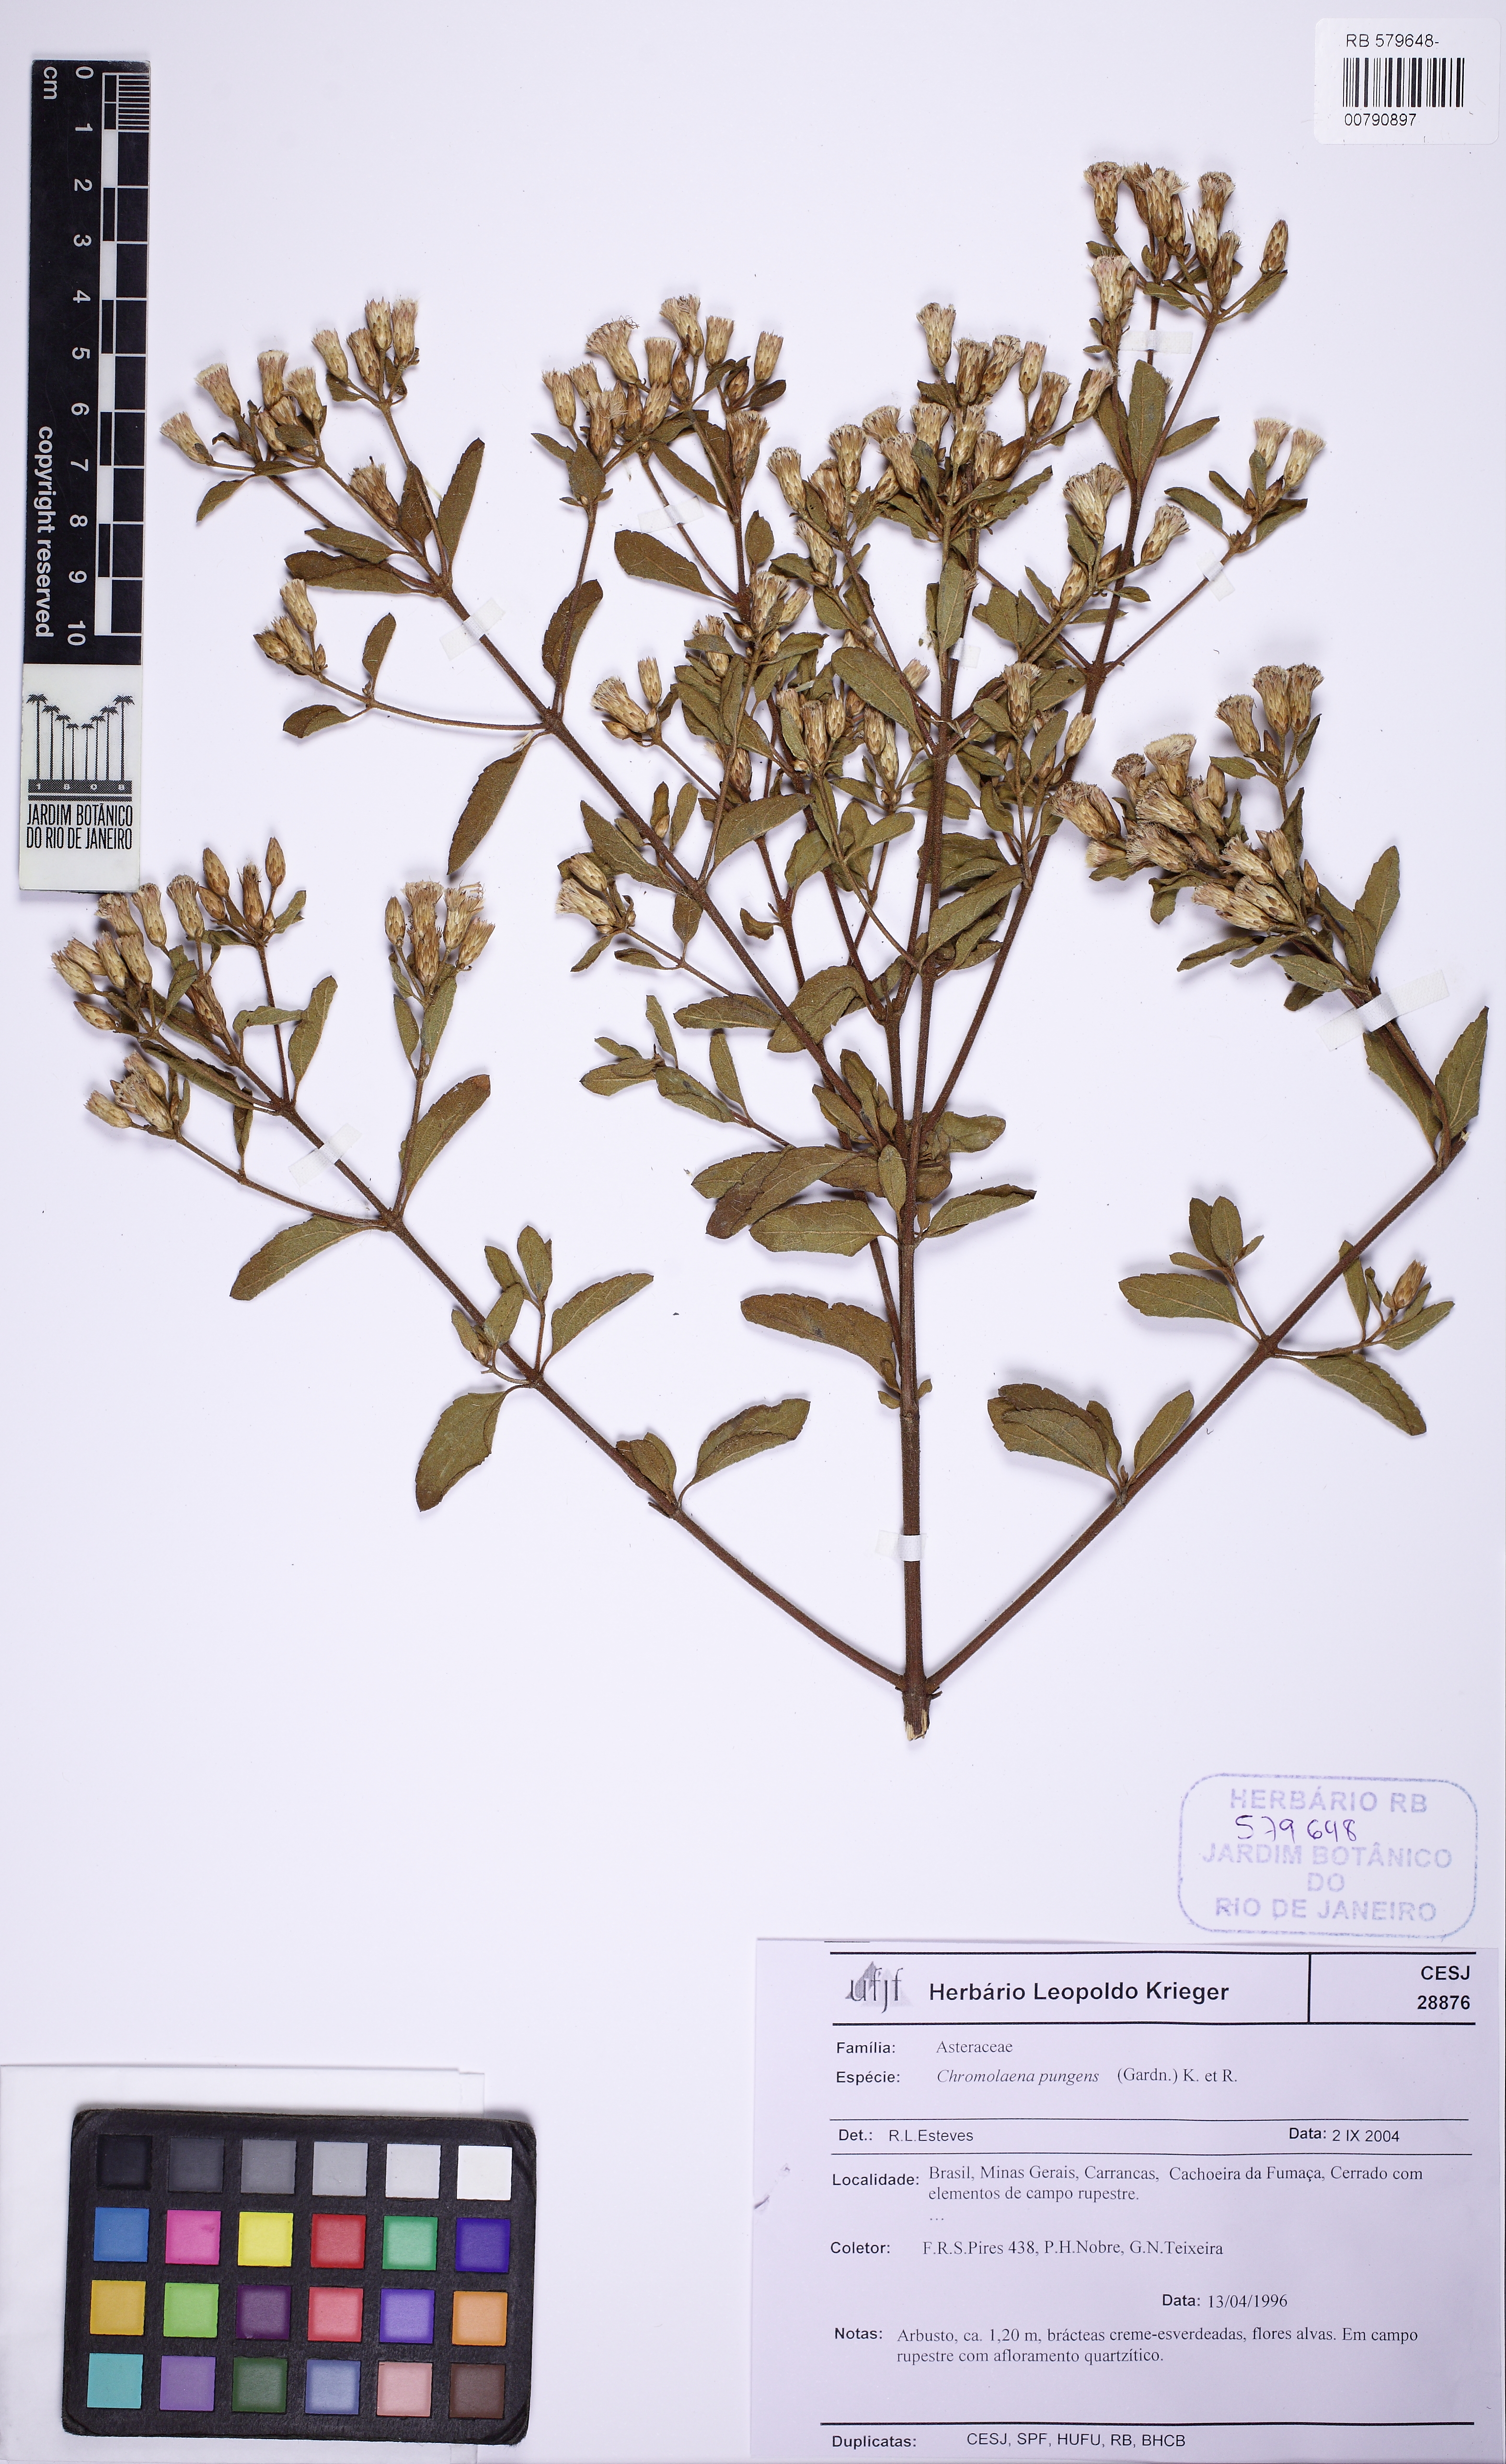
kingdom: Plantae
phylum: Tracheophyta
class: Magnoliopsida
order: Asterales
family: Asteraceae
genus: Chromolaena
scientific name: Chromolaena pungens
